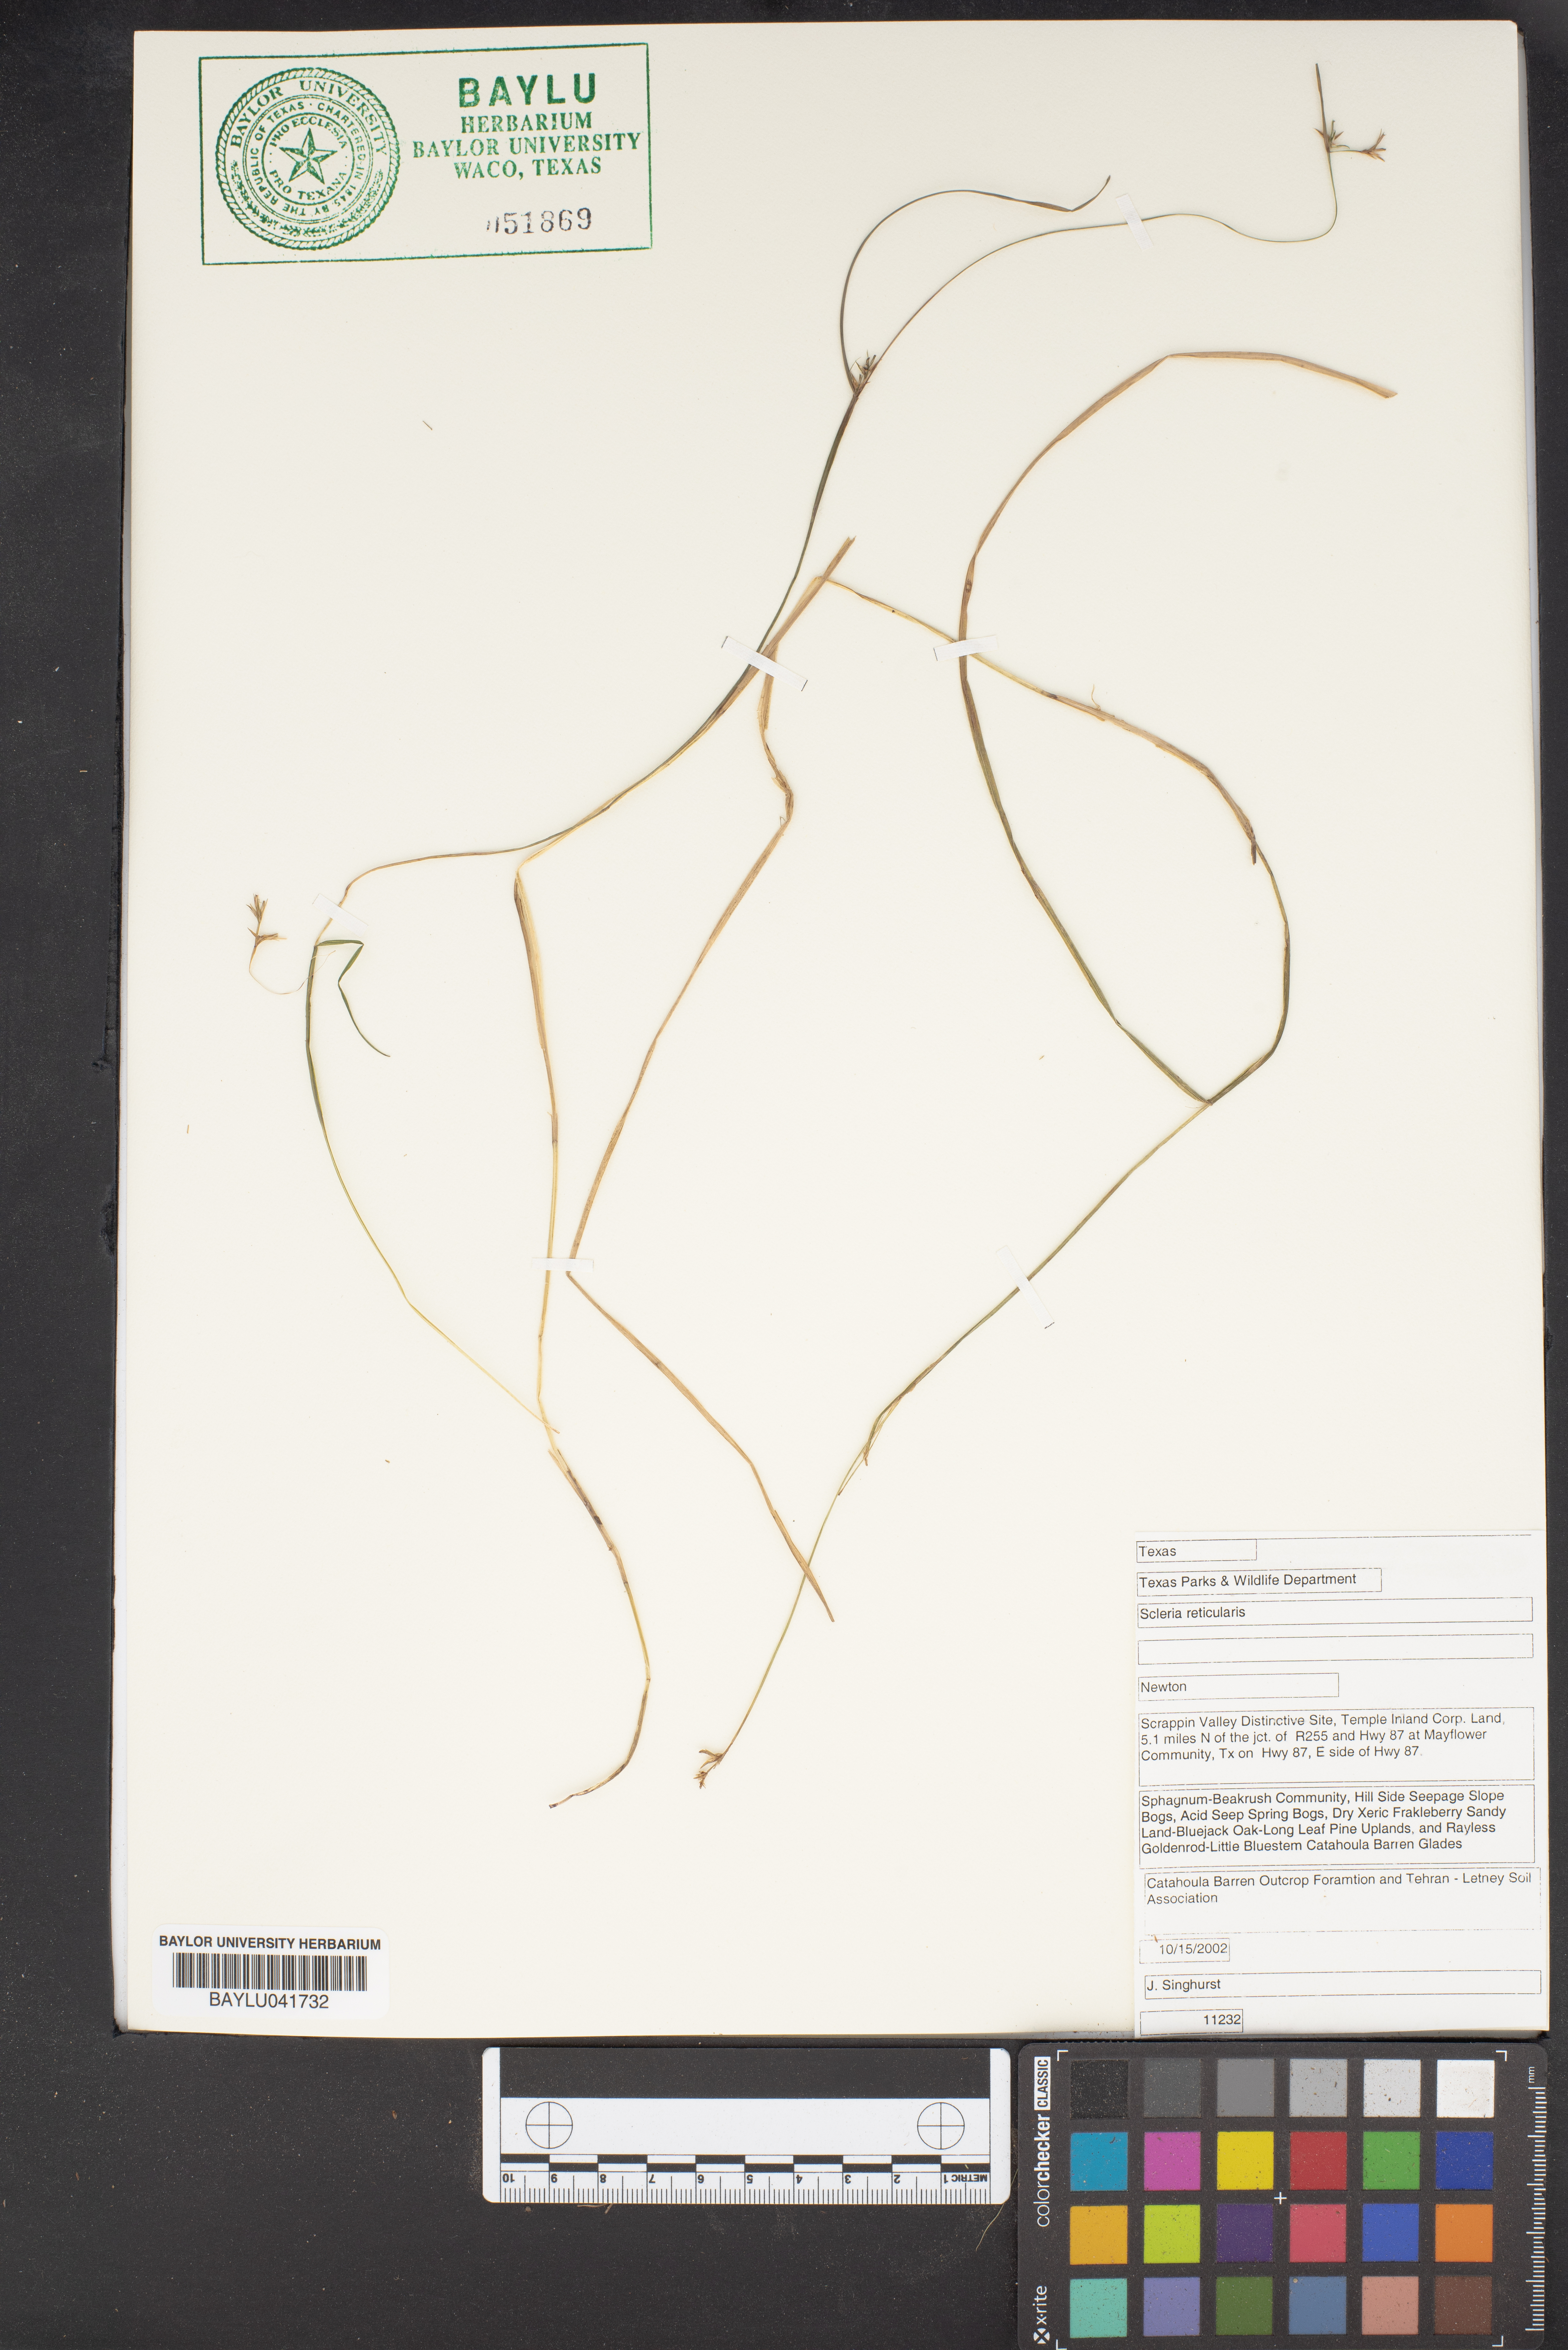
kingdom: Plantae
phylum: Tracheophyta
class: Liliopsida
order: Poales
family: Cyperaceae
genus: Scleria
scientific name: Scleria reticularis
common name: Netted nutrush
